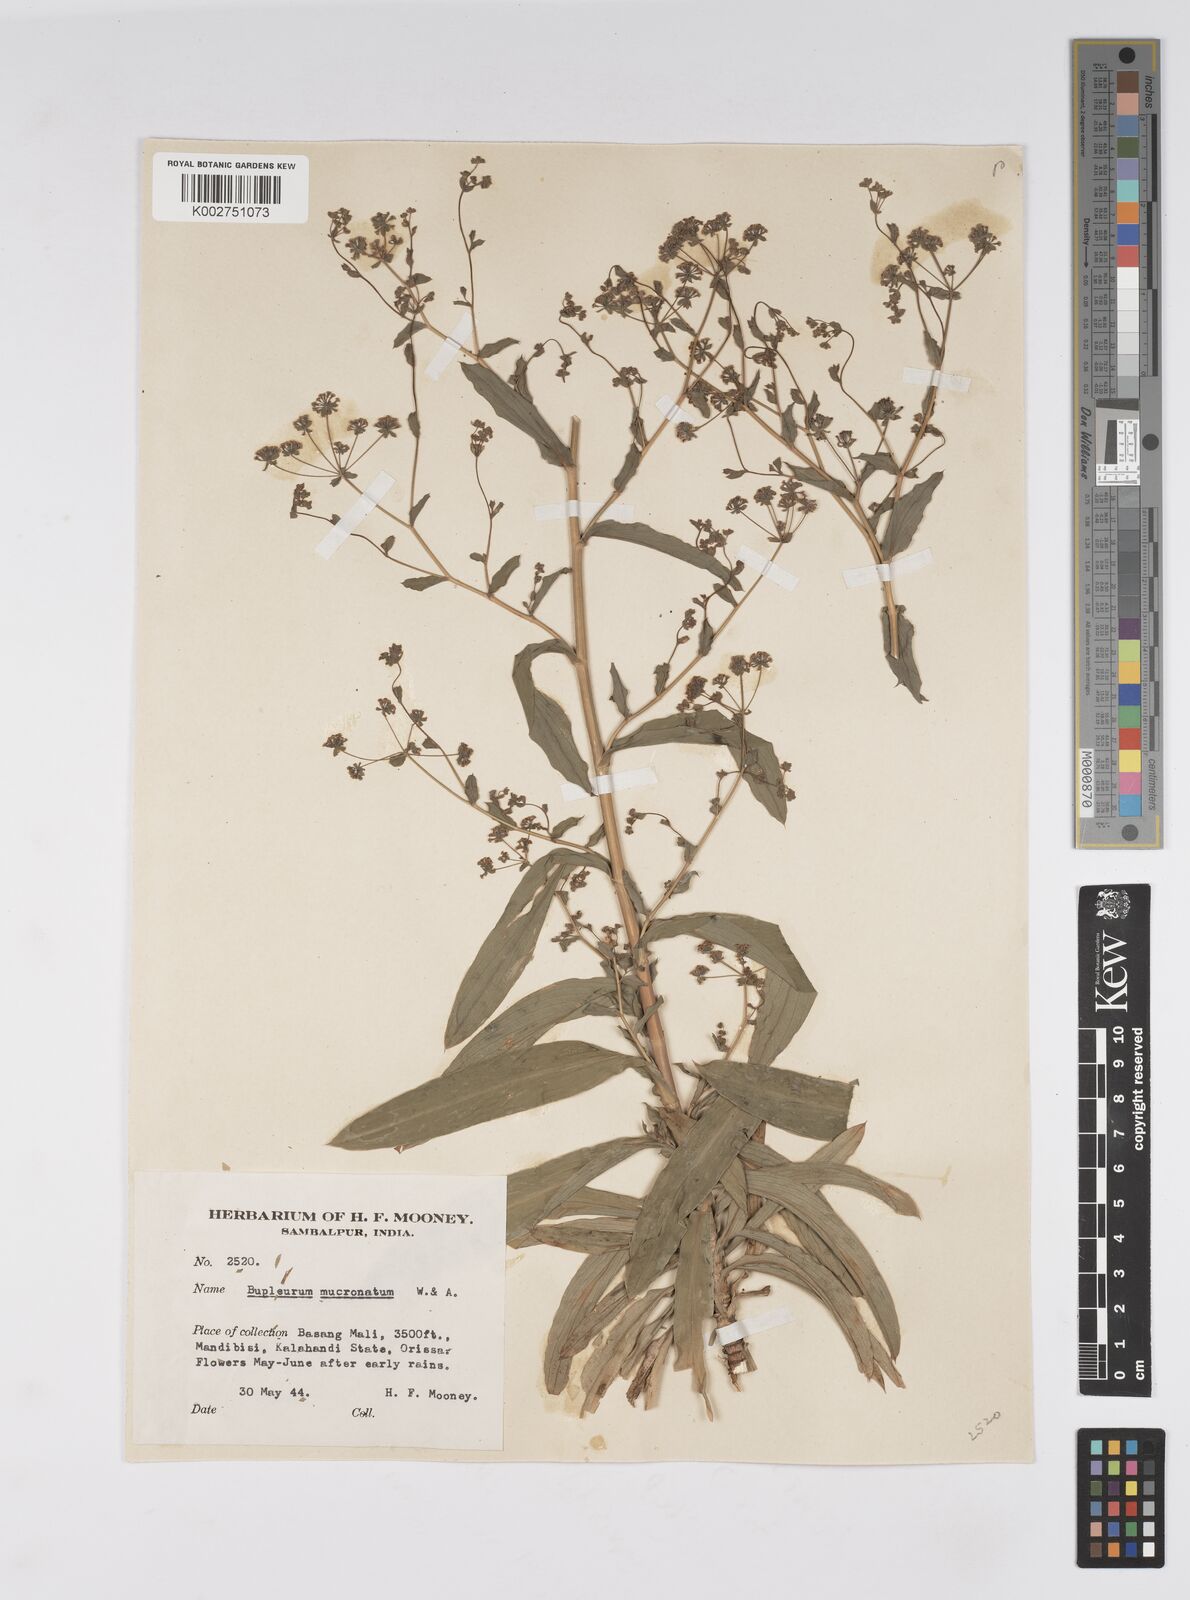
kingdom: Plantae
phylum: Tracheophyta
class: Magnoliopsida
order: Apiales
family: Apiaceae
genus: Bupleurum
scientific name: Bupleurum ramosissimum
